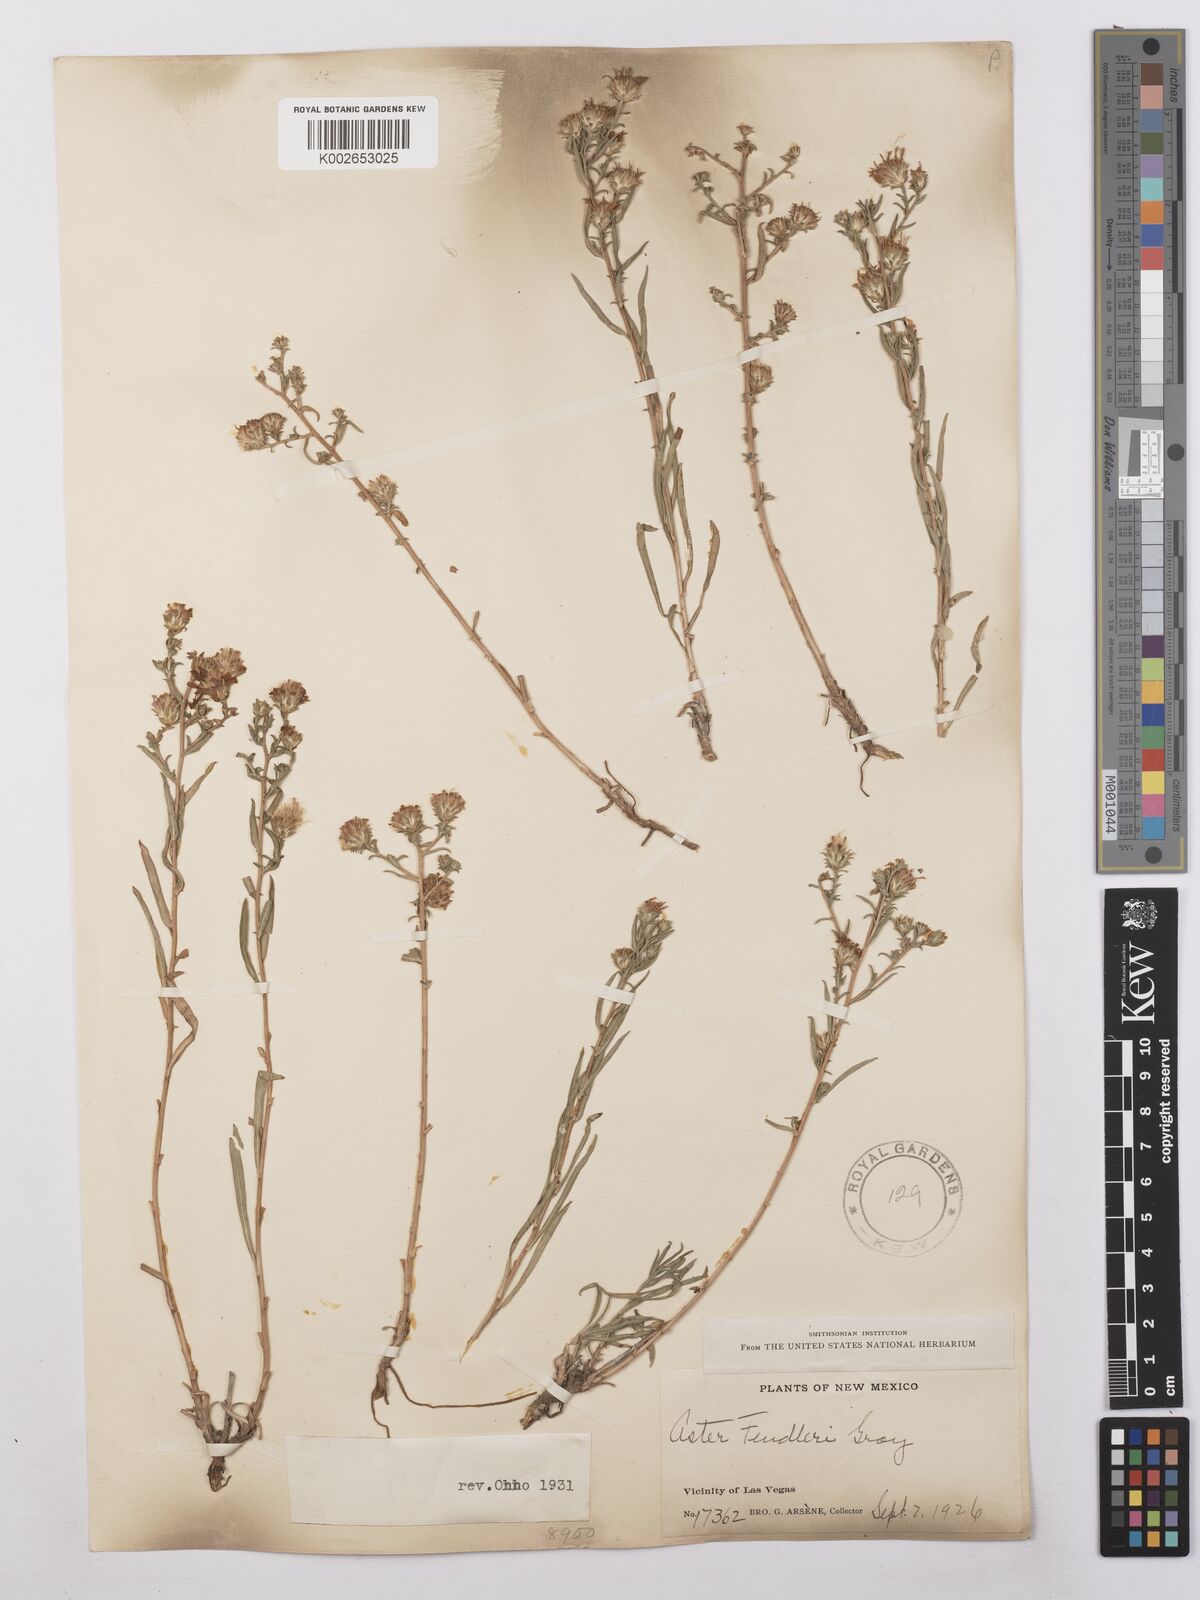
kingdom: Plantae
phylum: Tracheophyta
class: Magnoliopsida
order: Asterales
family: Asteraceae
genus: Symphyotrichum
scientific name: Symphyotrichum fendleri
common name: Fendler's aster
